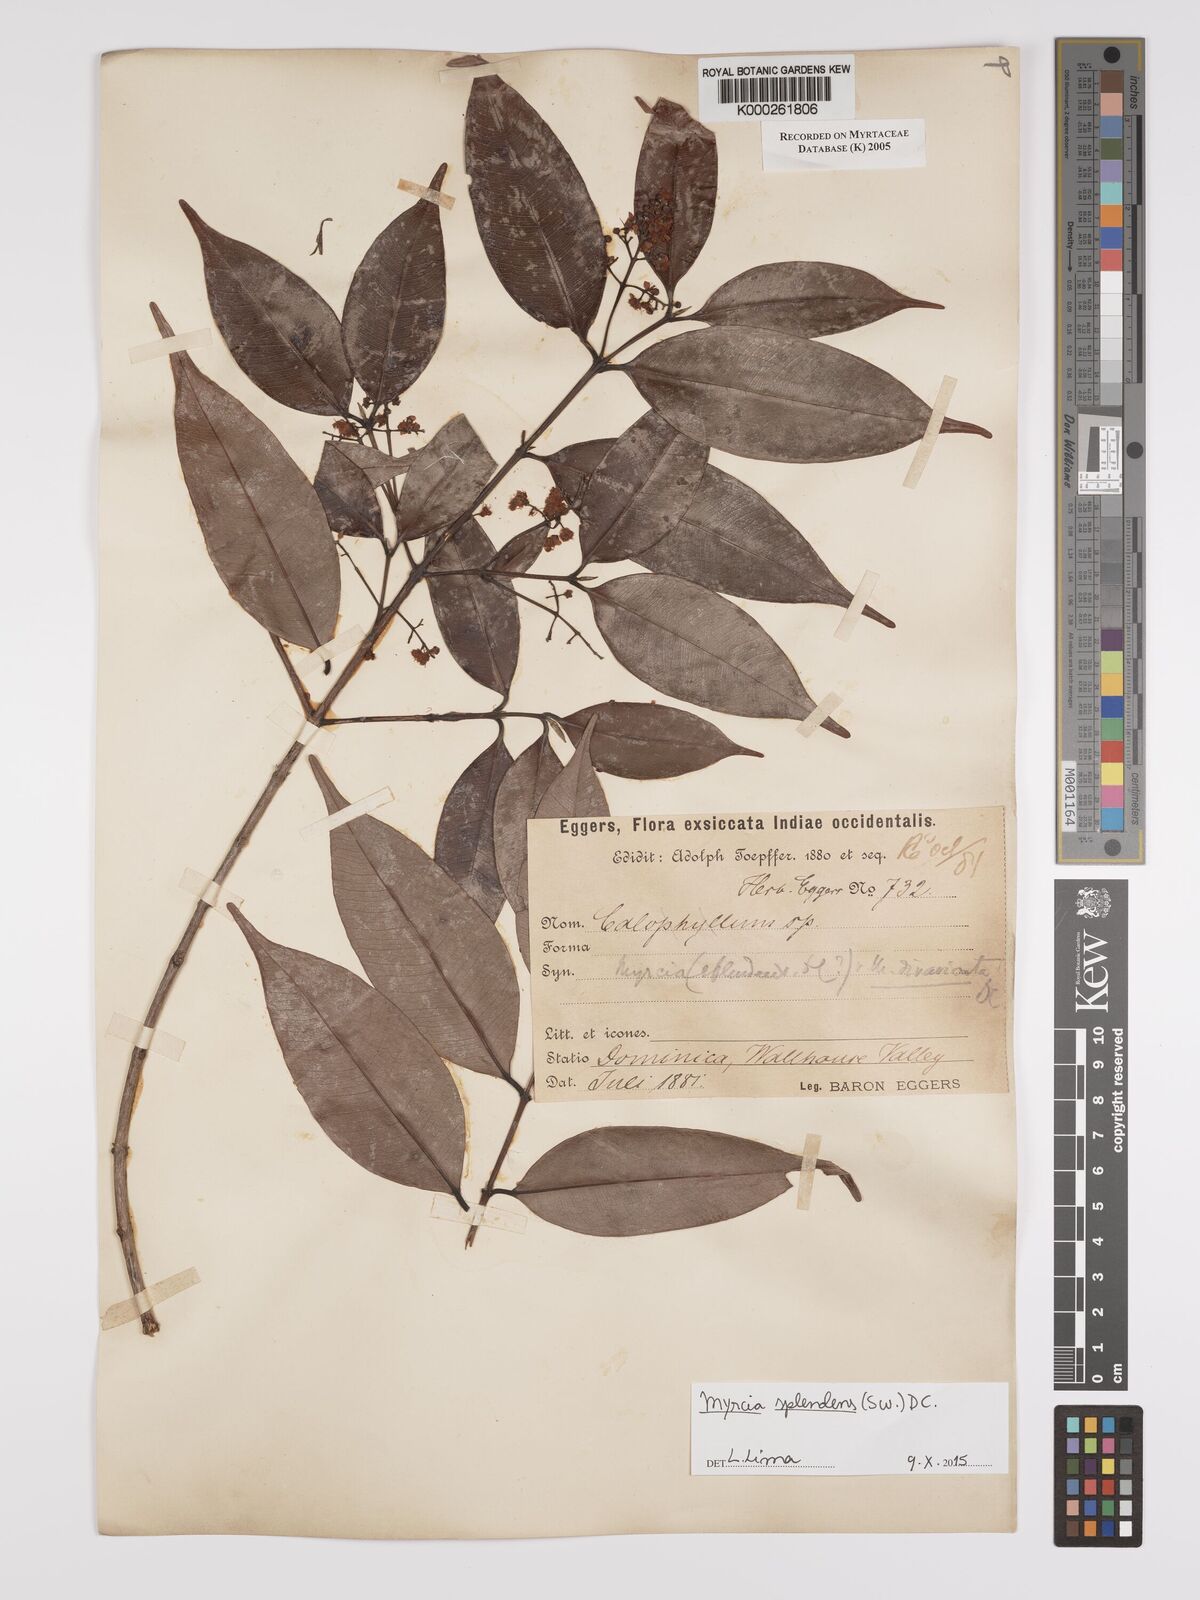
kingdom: Plantae
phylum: Tracheophyta
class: Magnoliopsida
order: Myrtales
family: Myrtaceae
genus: Myrcia
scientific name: Myrcia splendens
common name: Surinam cherry
